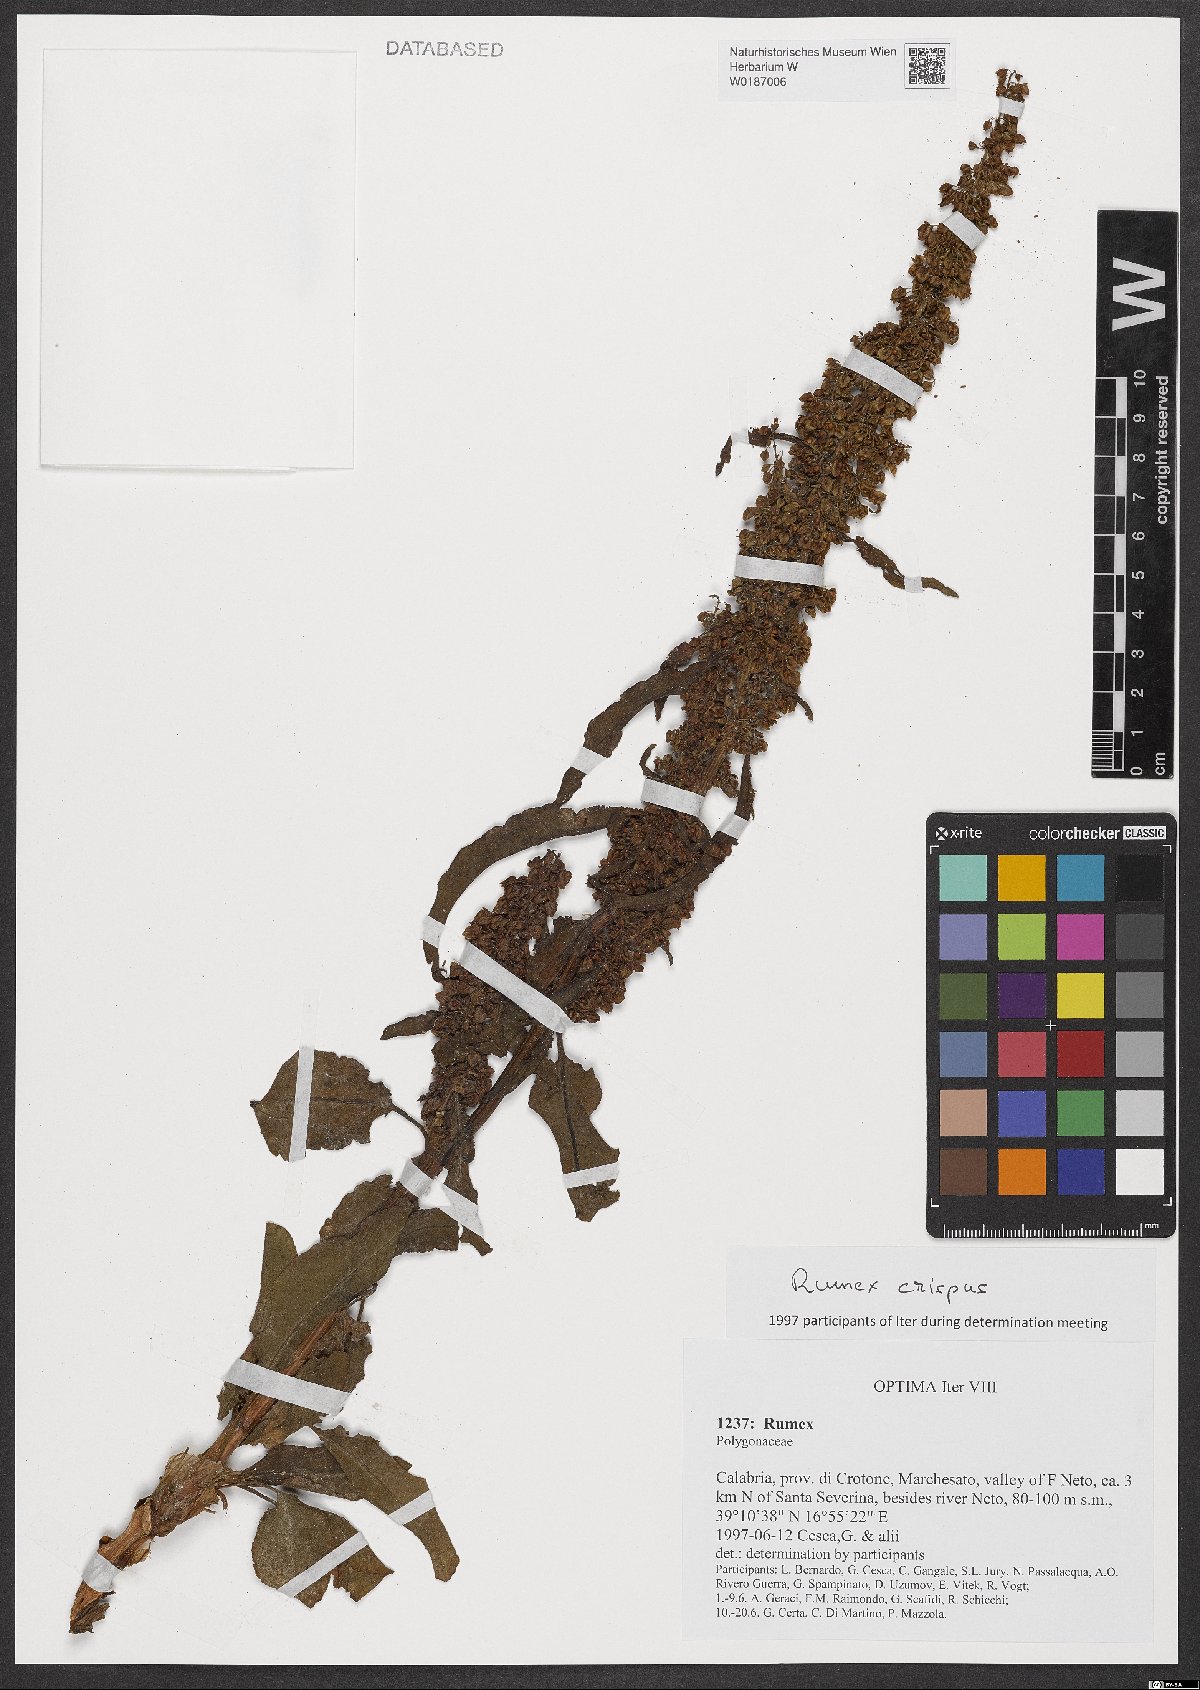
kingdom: Plantae
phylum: Tracheophyta
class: Magnoliopsida
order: Caryophyllales
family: Polygonaceae
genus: Rumex
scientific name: Rumex crispus
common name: Curled dock
